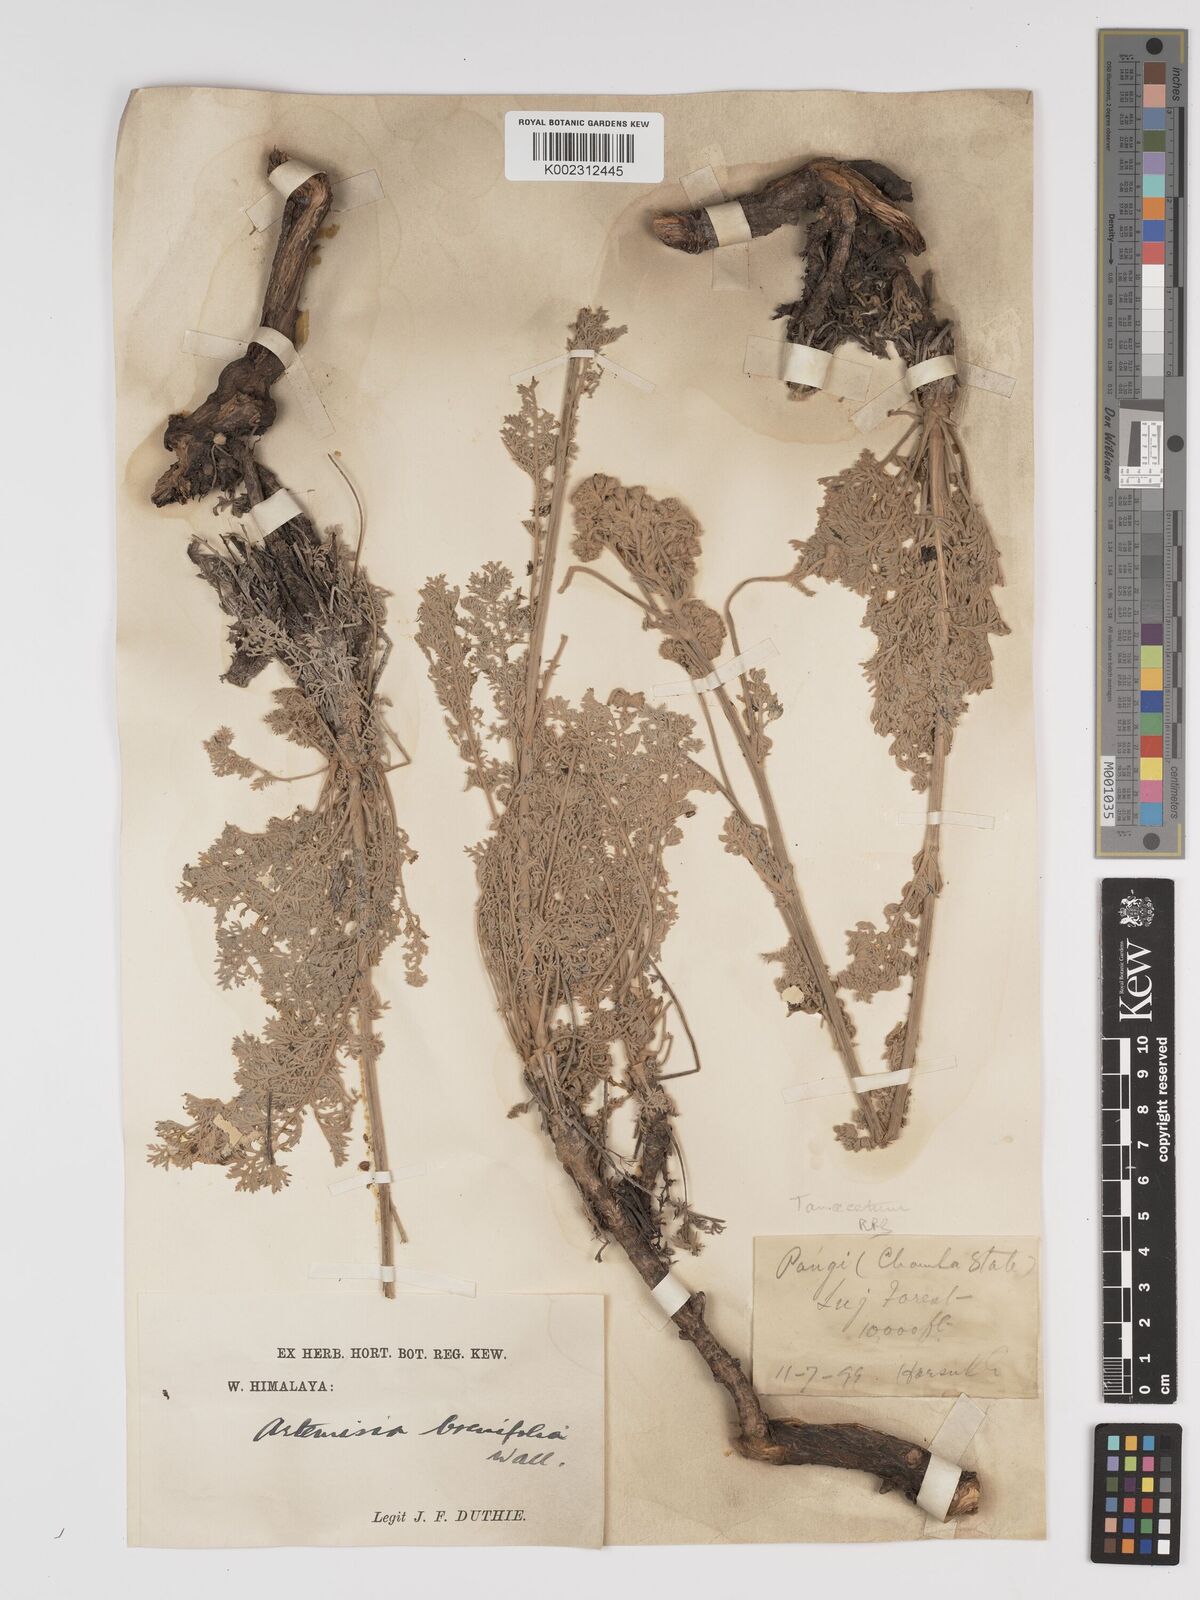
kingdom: Plantae
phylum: Tracheophyta
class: Magnoliopsida
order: Asterales
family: Asteraceae
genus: Tanacetum
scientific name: Tanacetum robustum
